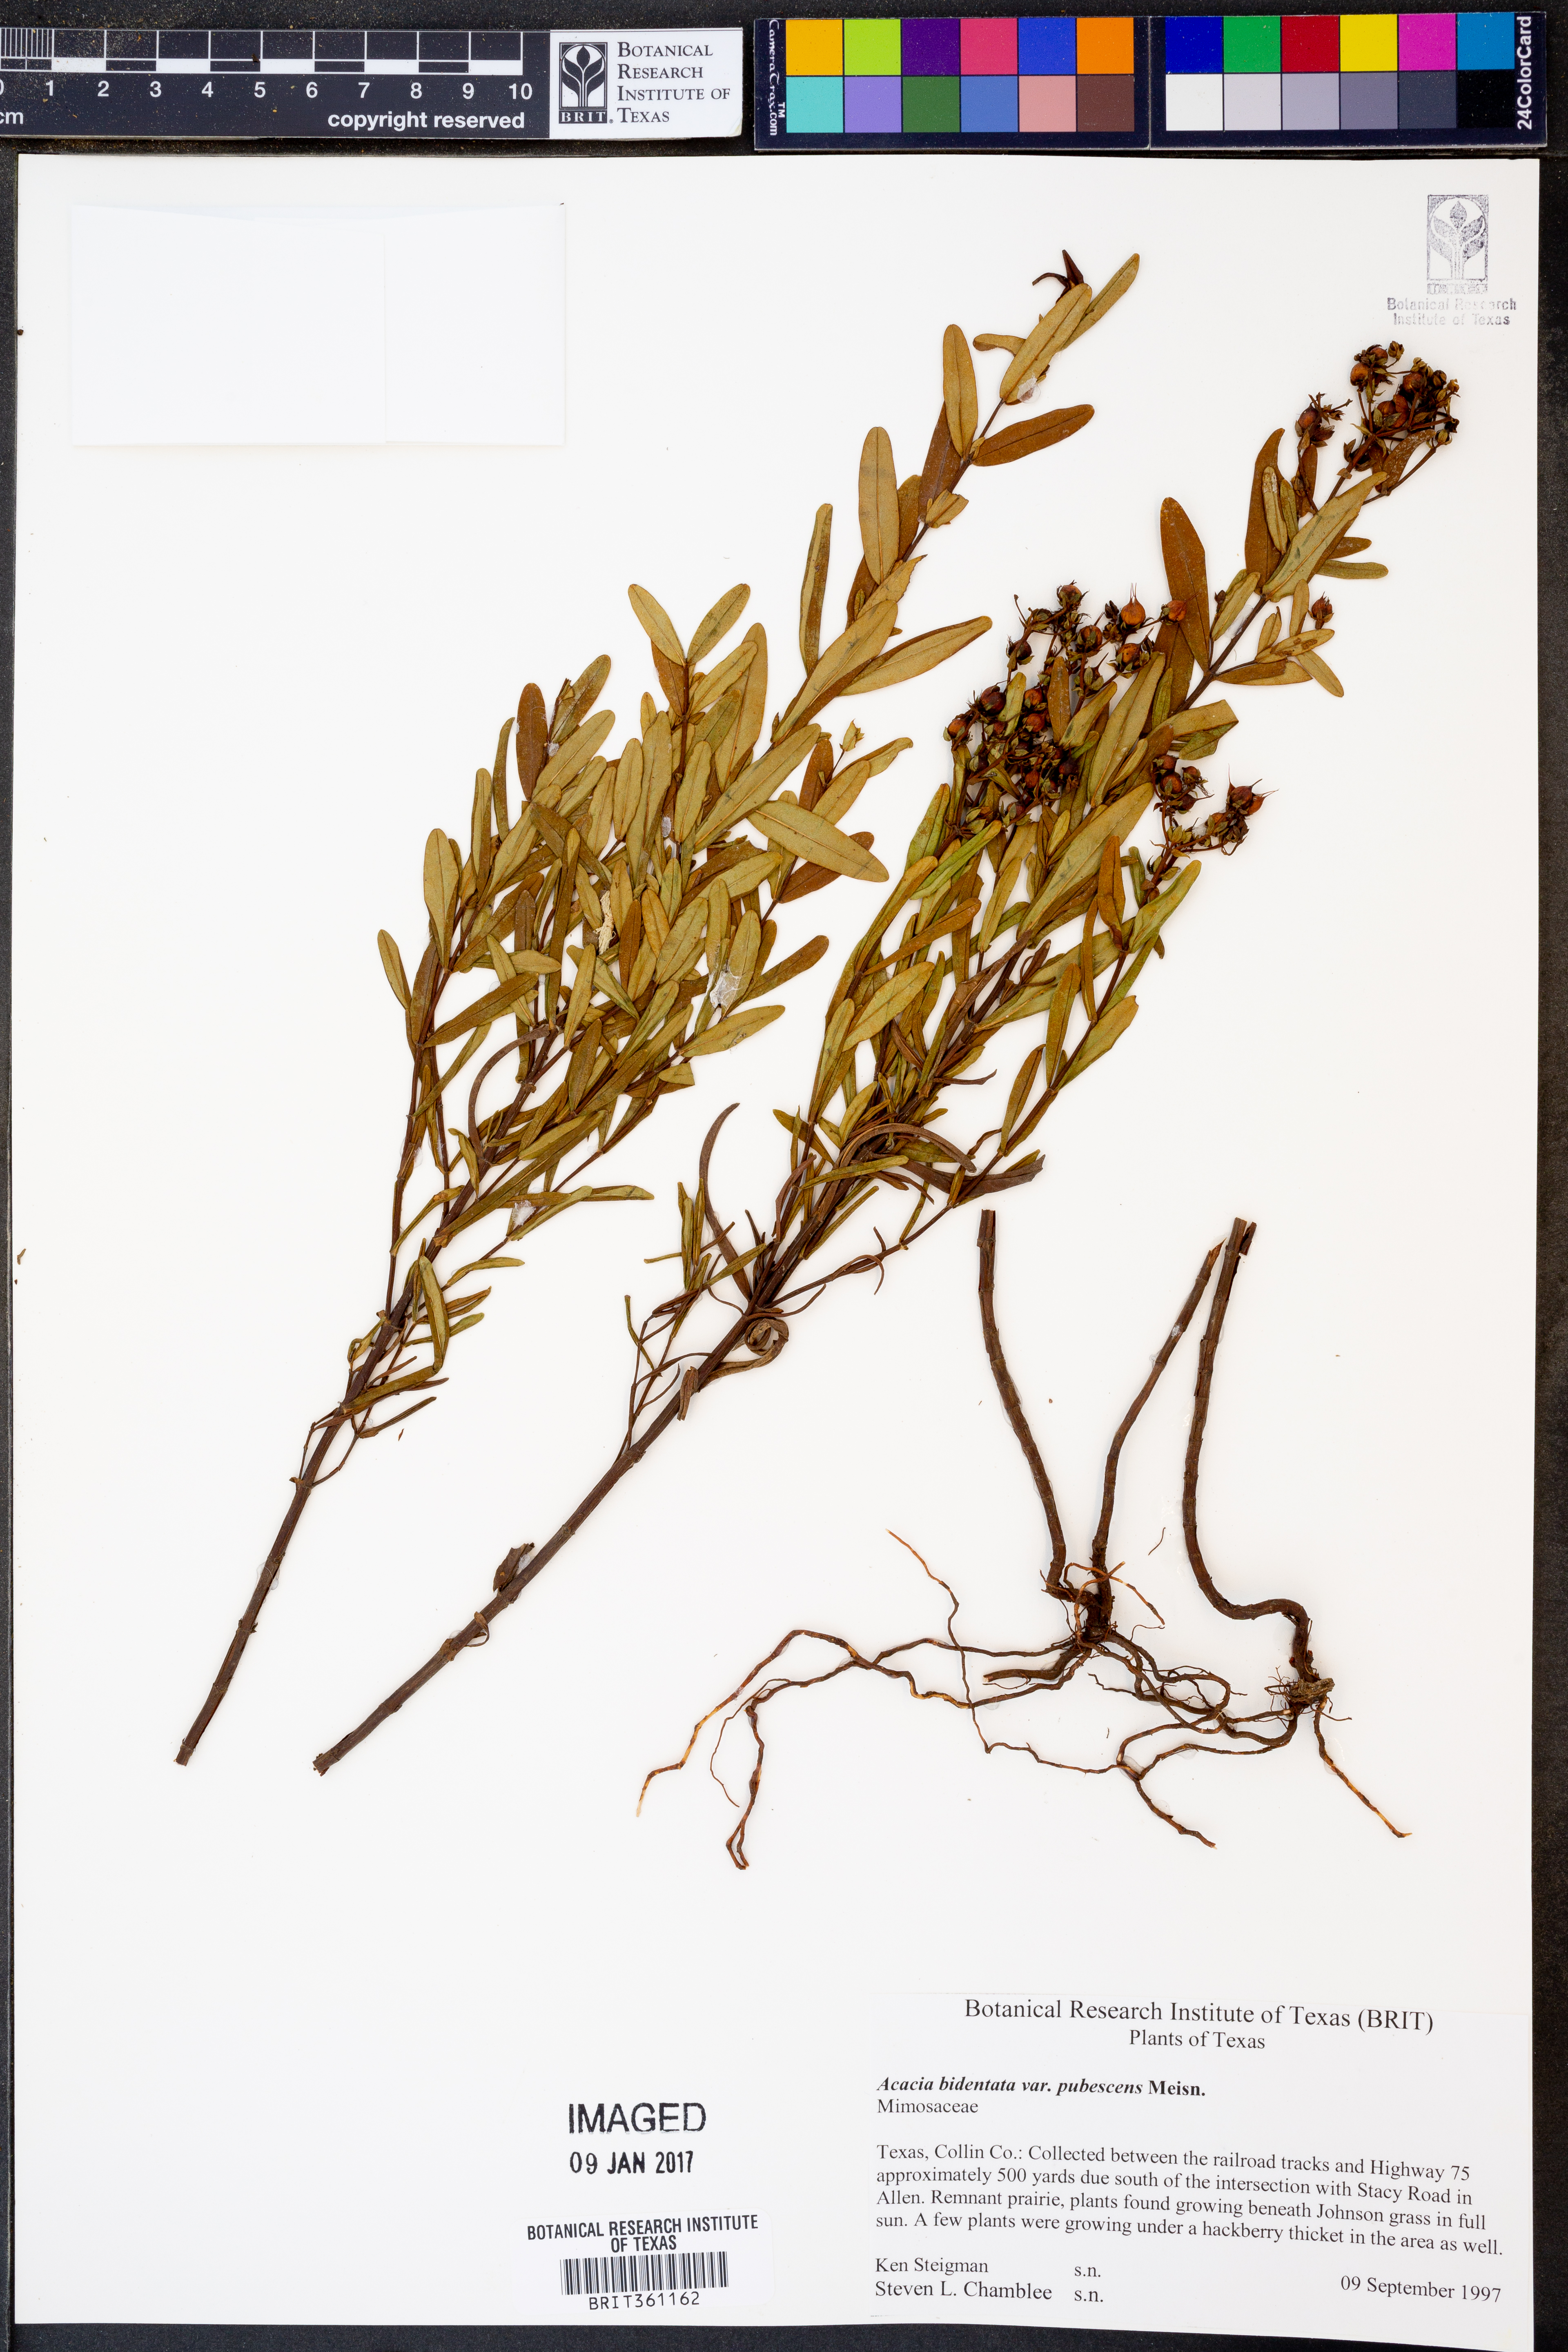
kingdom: Plantae
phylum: Tracheophyta
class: Magnoliopsida
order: Fabales
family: Fabaceae
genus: Acacia
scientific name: Acacia bidentata
